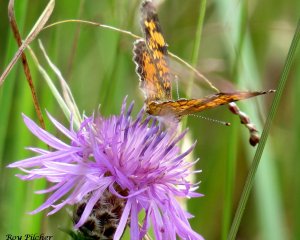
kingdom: Animalia
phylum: Arthropoda
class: Insecta
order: Lepidoptera
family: Nymphalidae
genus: Phyciodes
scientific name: Phyciodes tharos
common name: Northern Crescent
